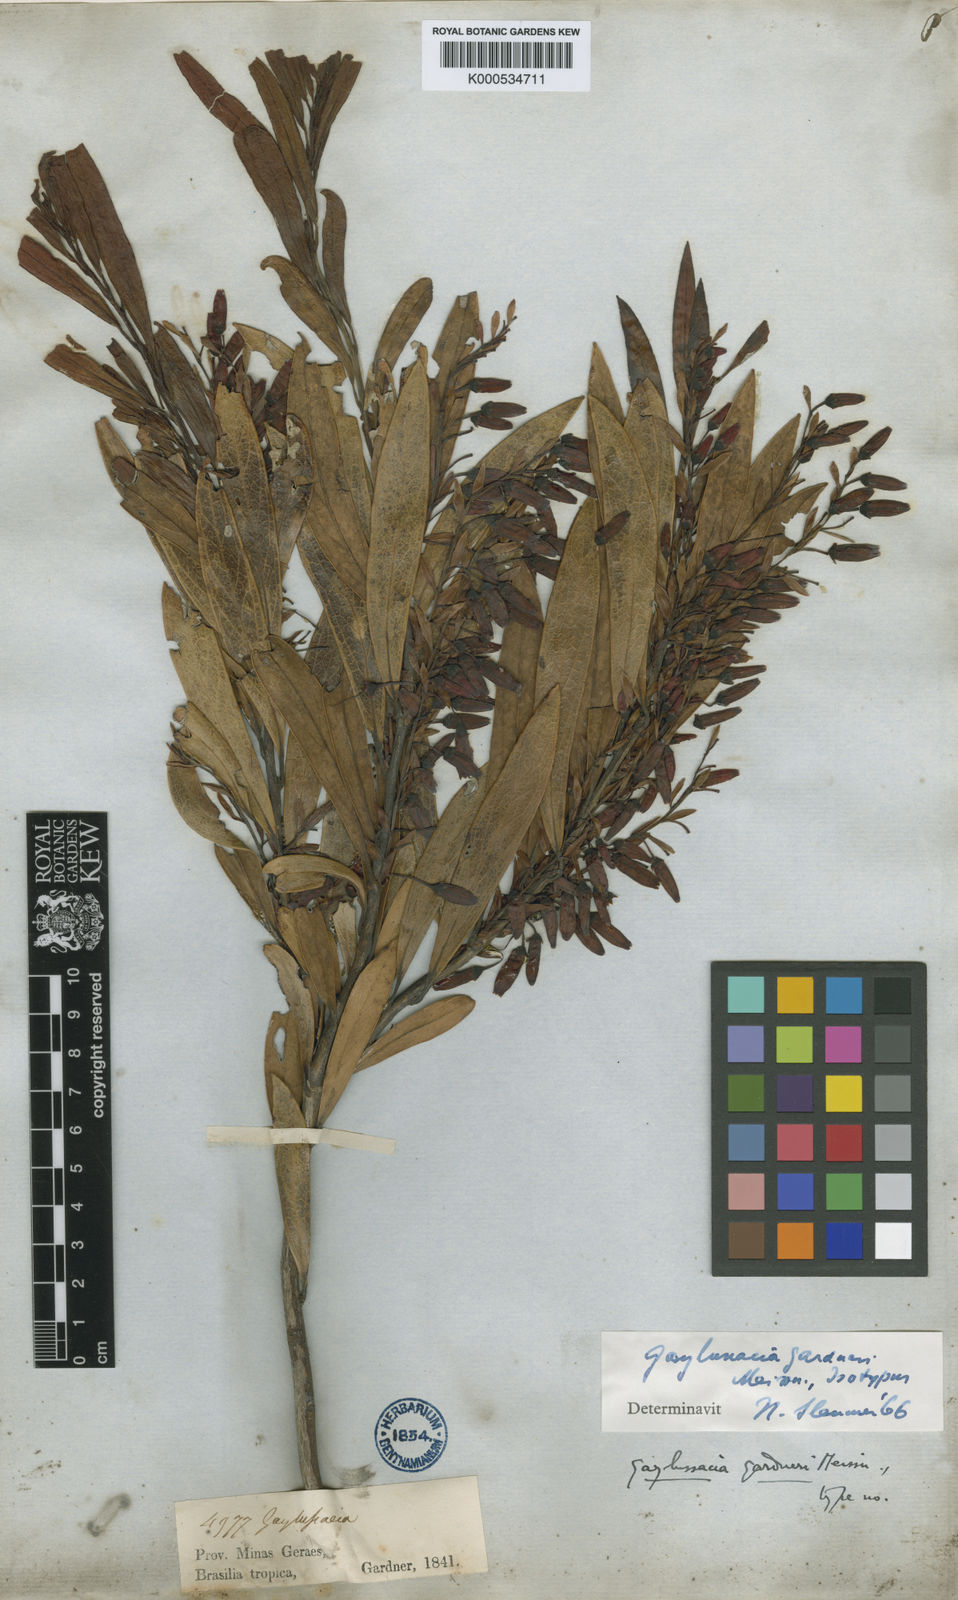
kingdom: Plantae
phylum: Tracheophyta
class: Magnoliopsida
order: Ericales
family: Ericaceae
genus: Gaylussacia
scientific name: Gaylussacia gardneri
